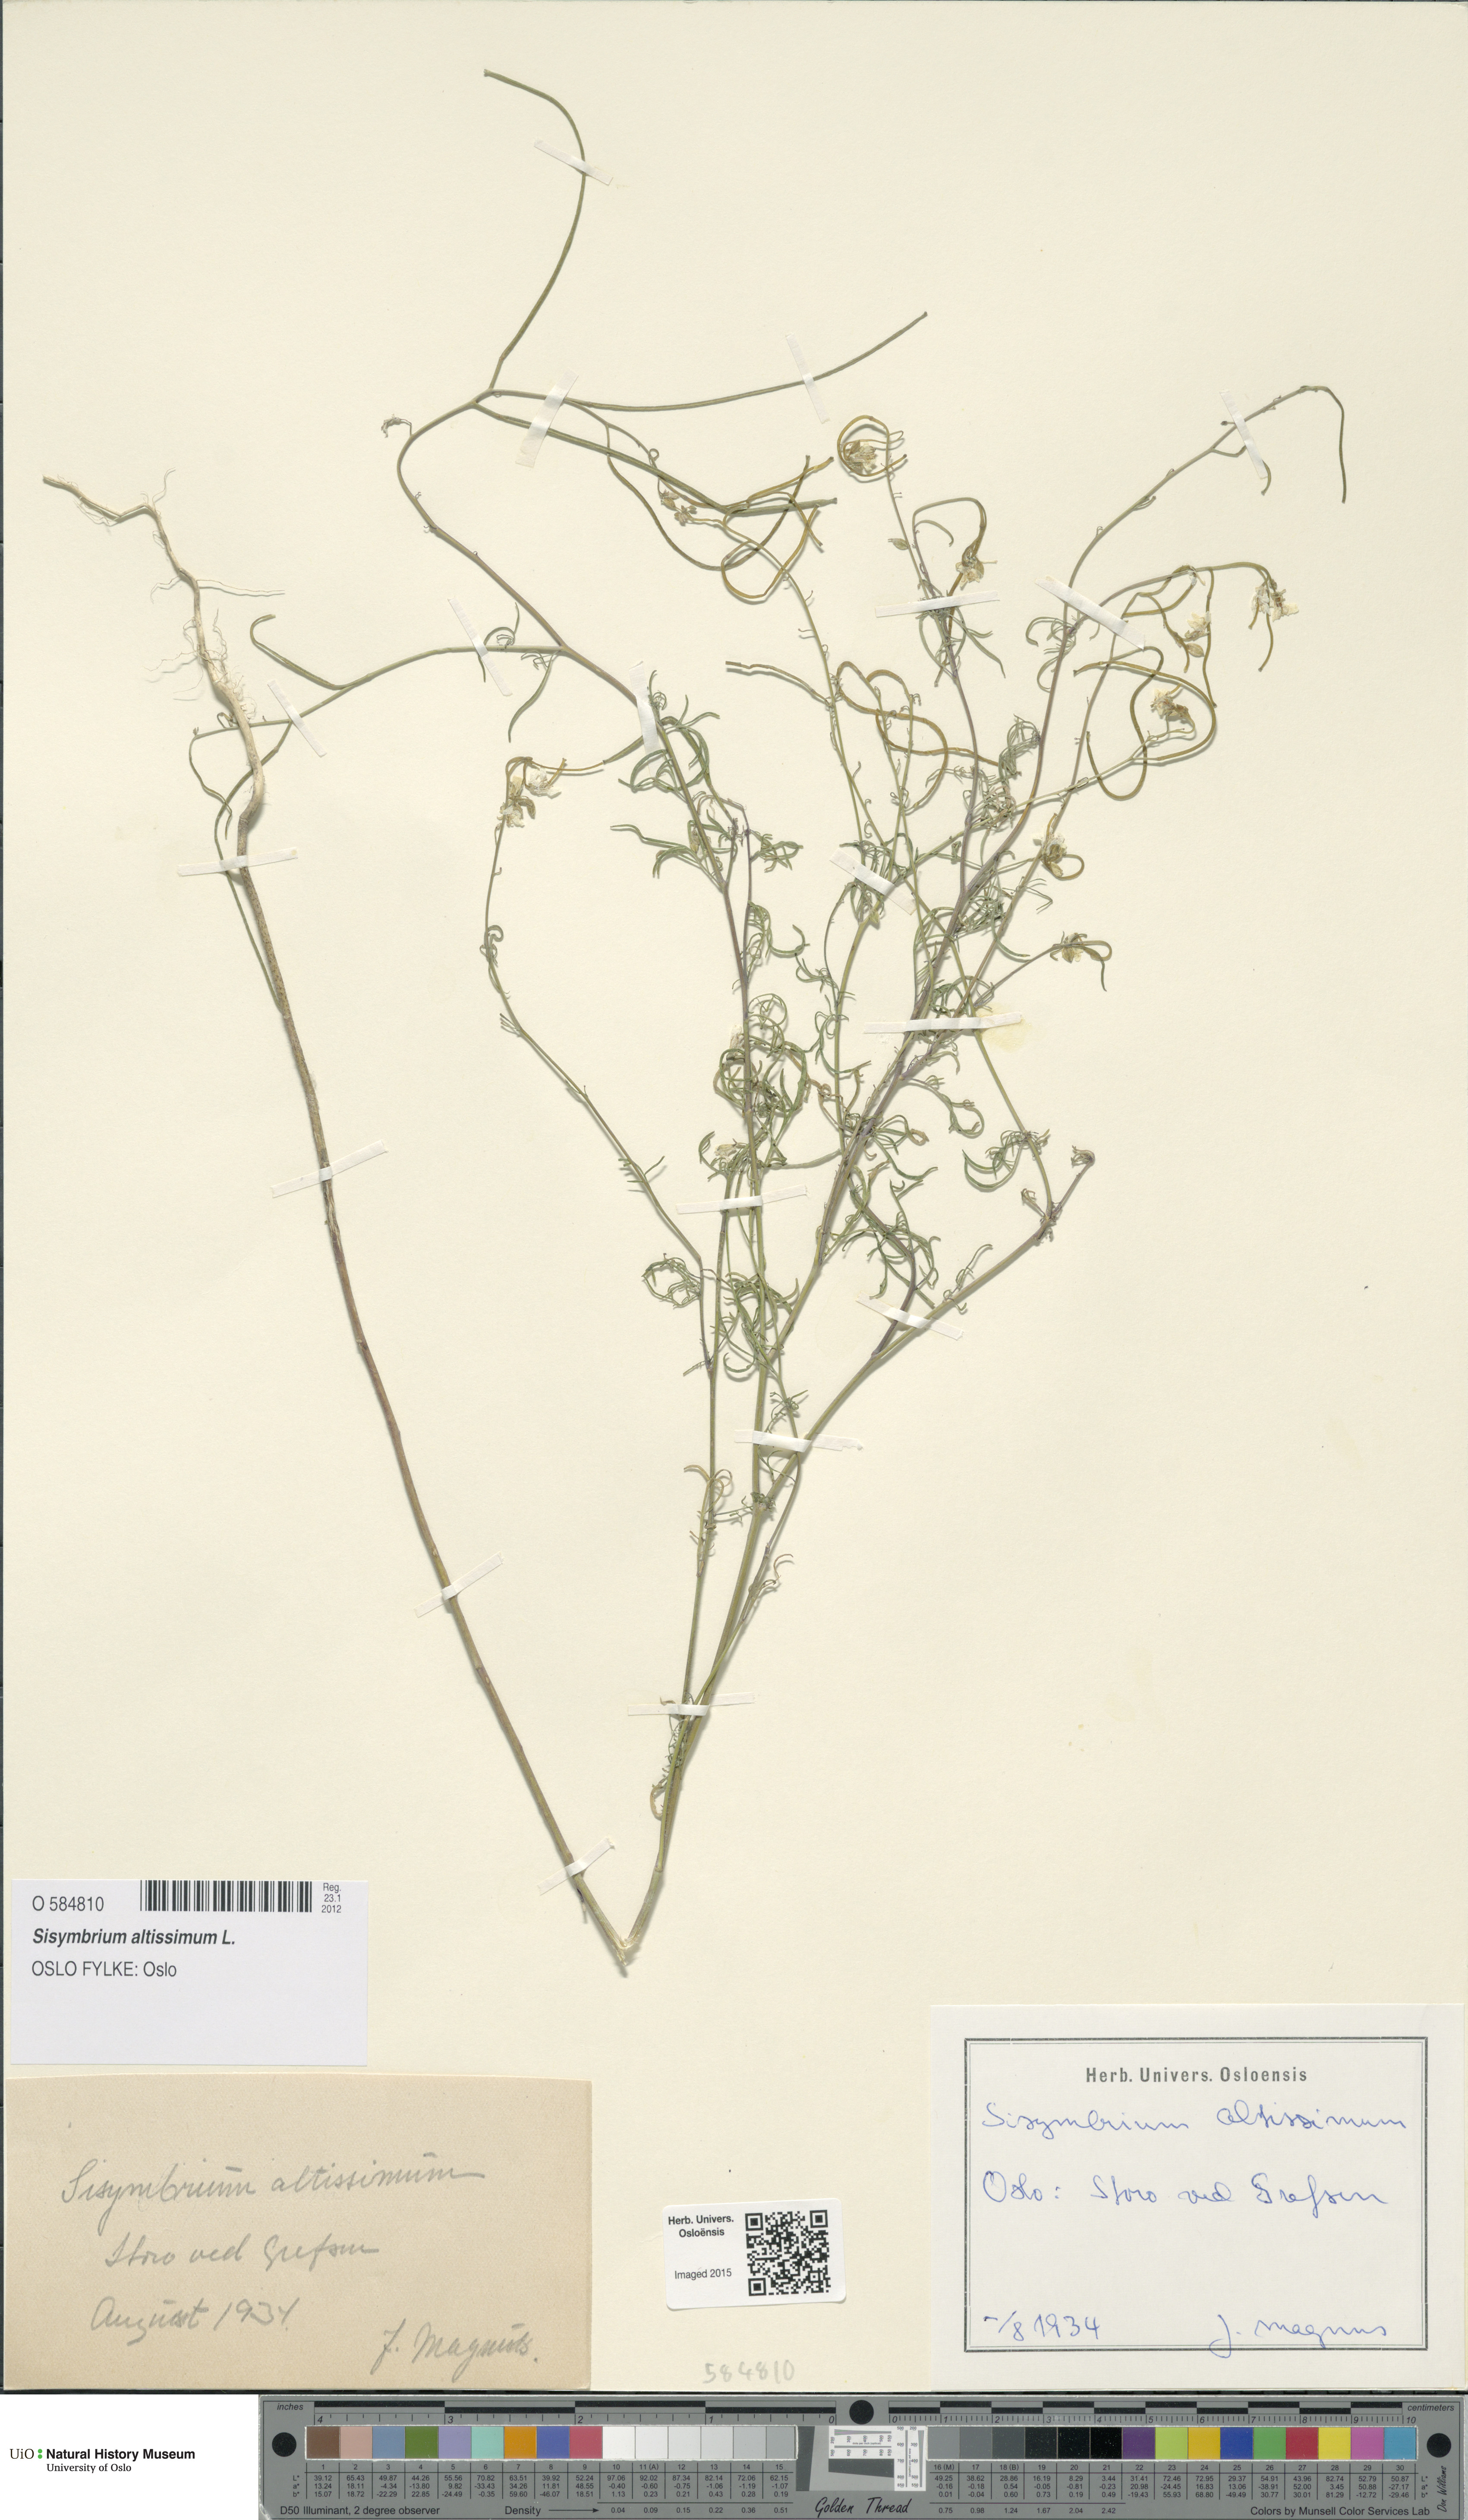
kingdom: Plantae
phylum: Tracheophyta
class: Magnoliopsida
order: Brassicales
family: Brassicaceae
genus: Sisymbrium
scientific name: Sisymbrium altissimum
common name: Tall rocket
